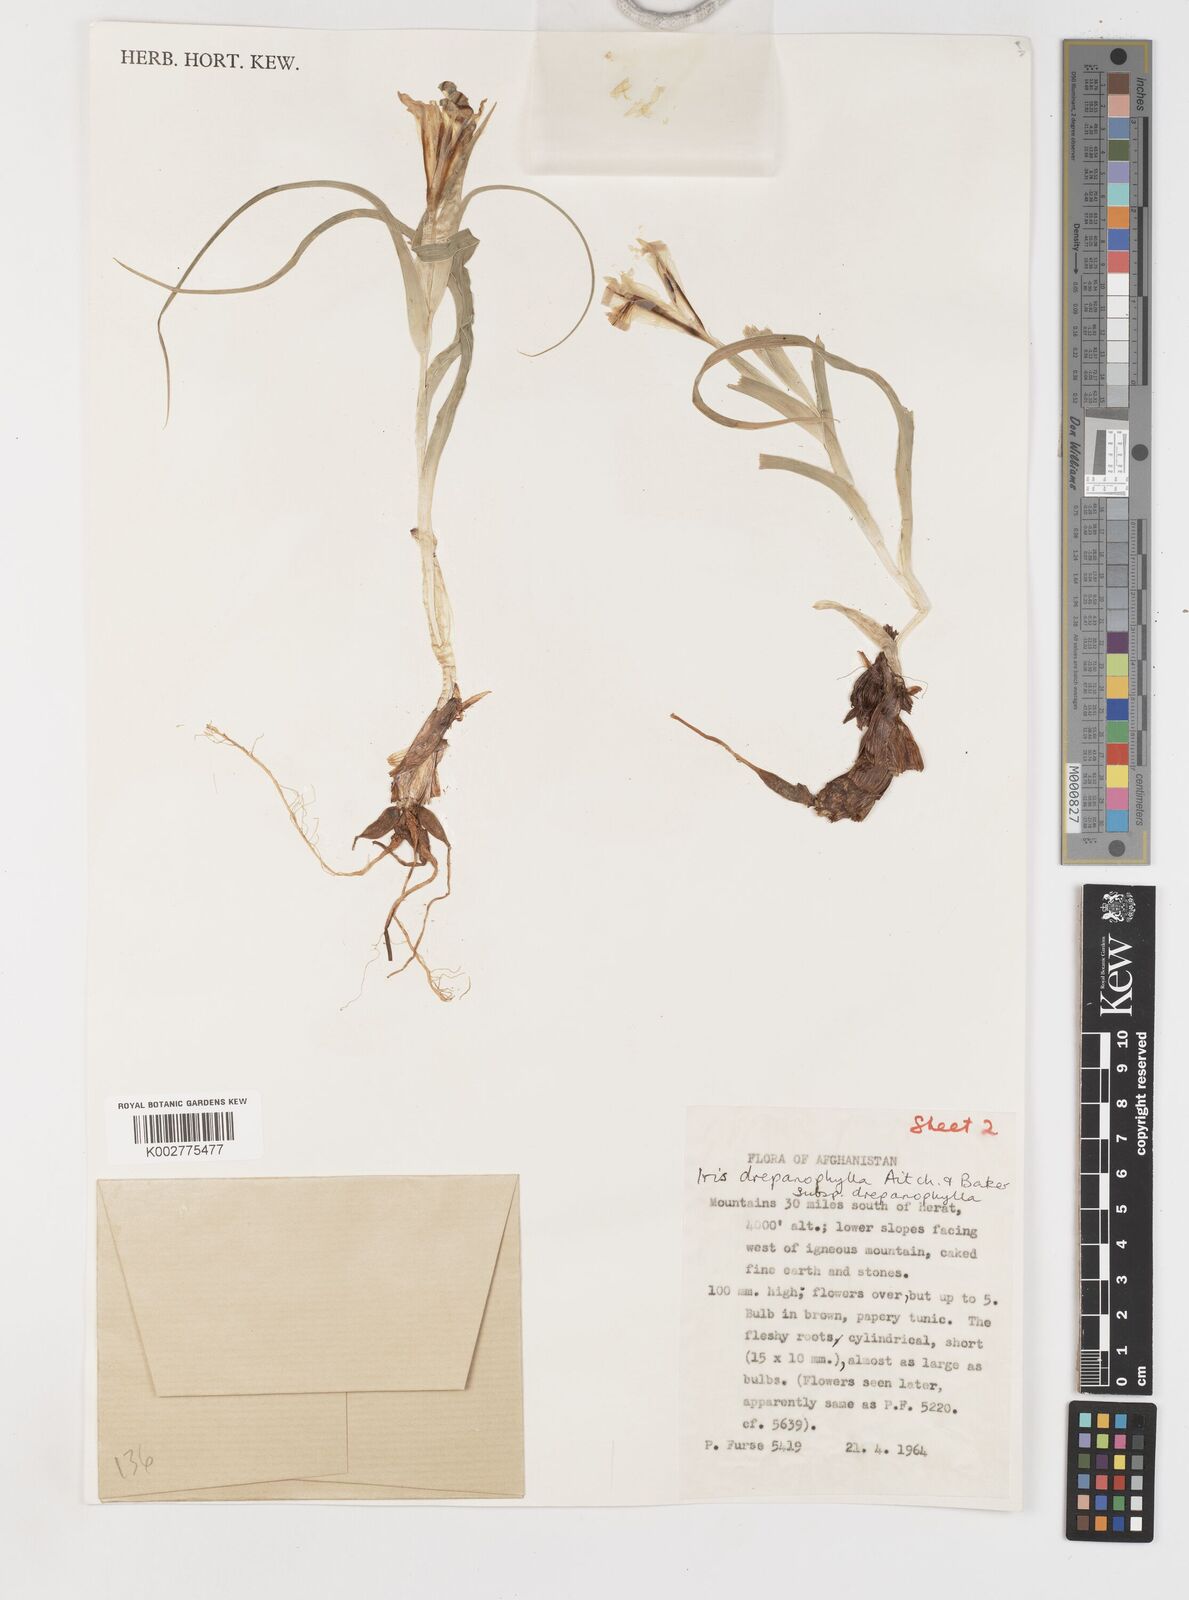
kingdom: Plantae
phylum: Tracheophyta
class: Liliopsida
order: Asparagales
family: Iridaceae
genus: Iris
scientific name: Iris drepanophylla
